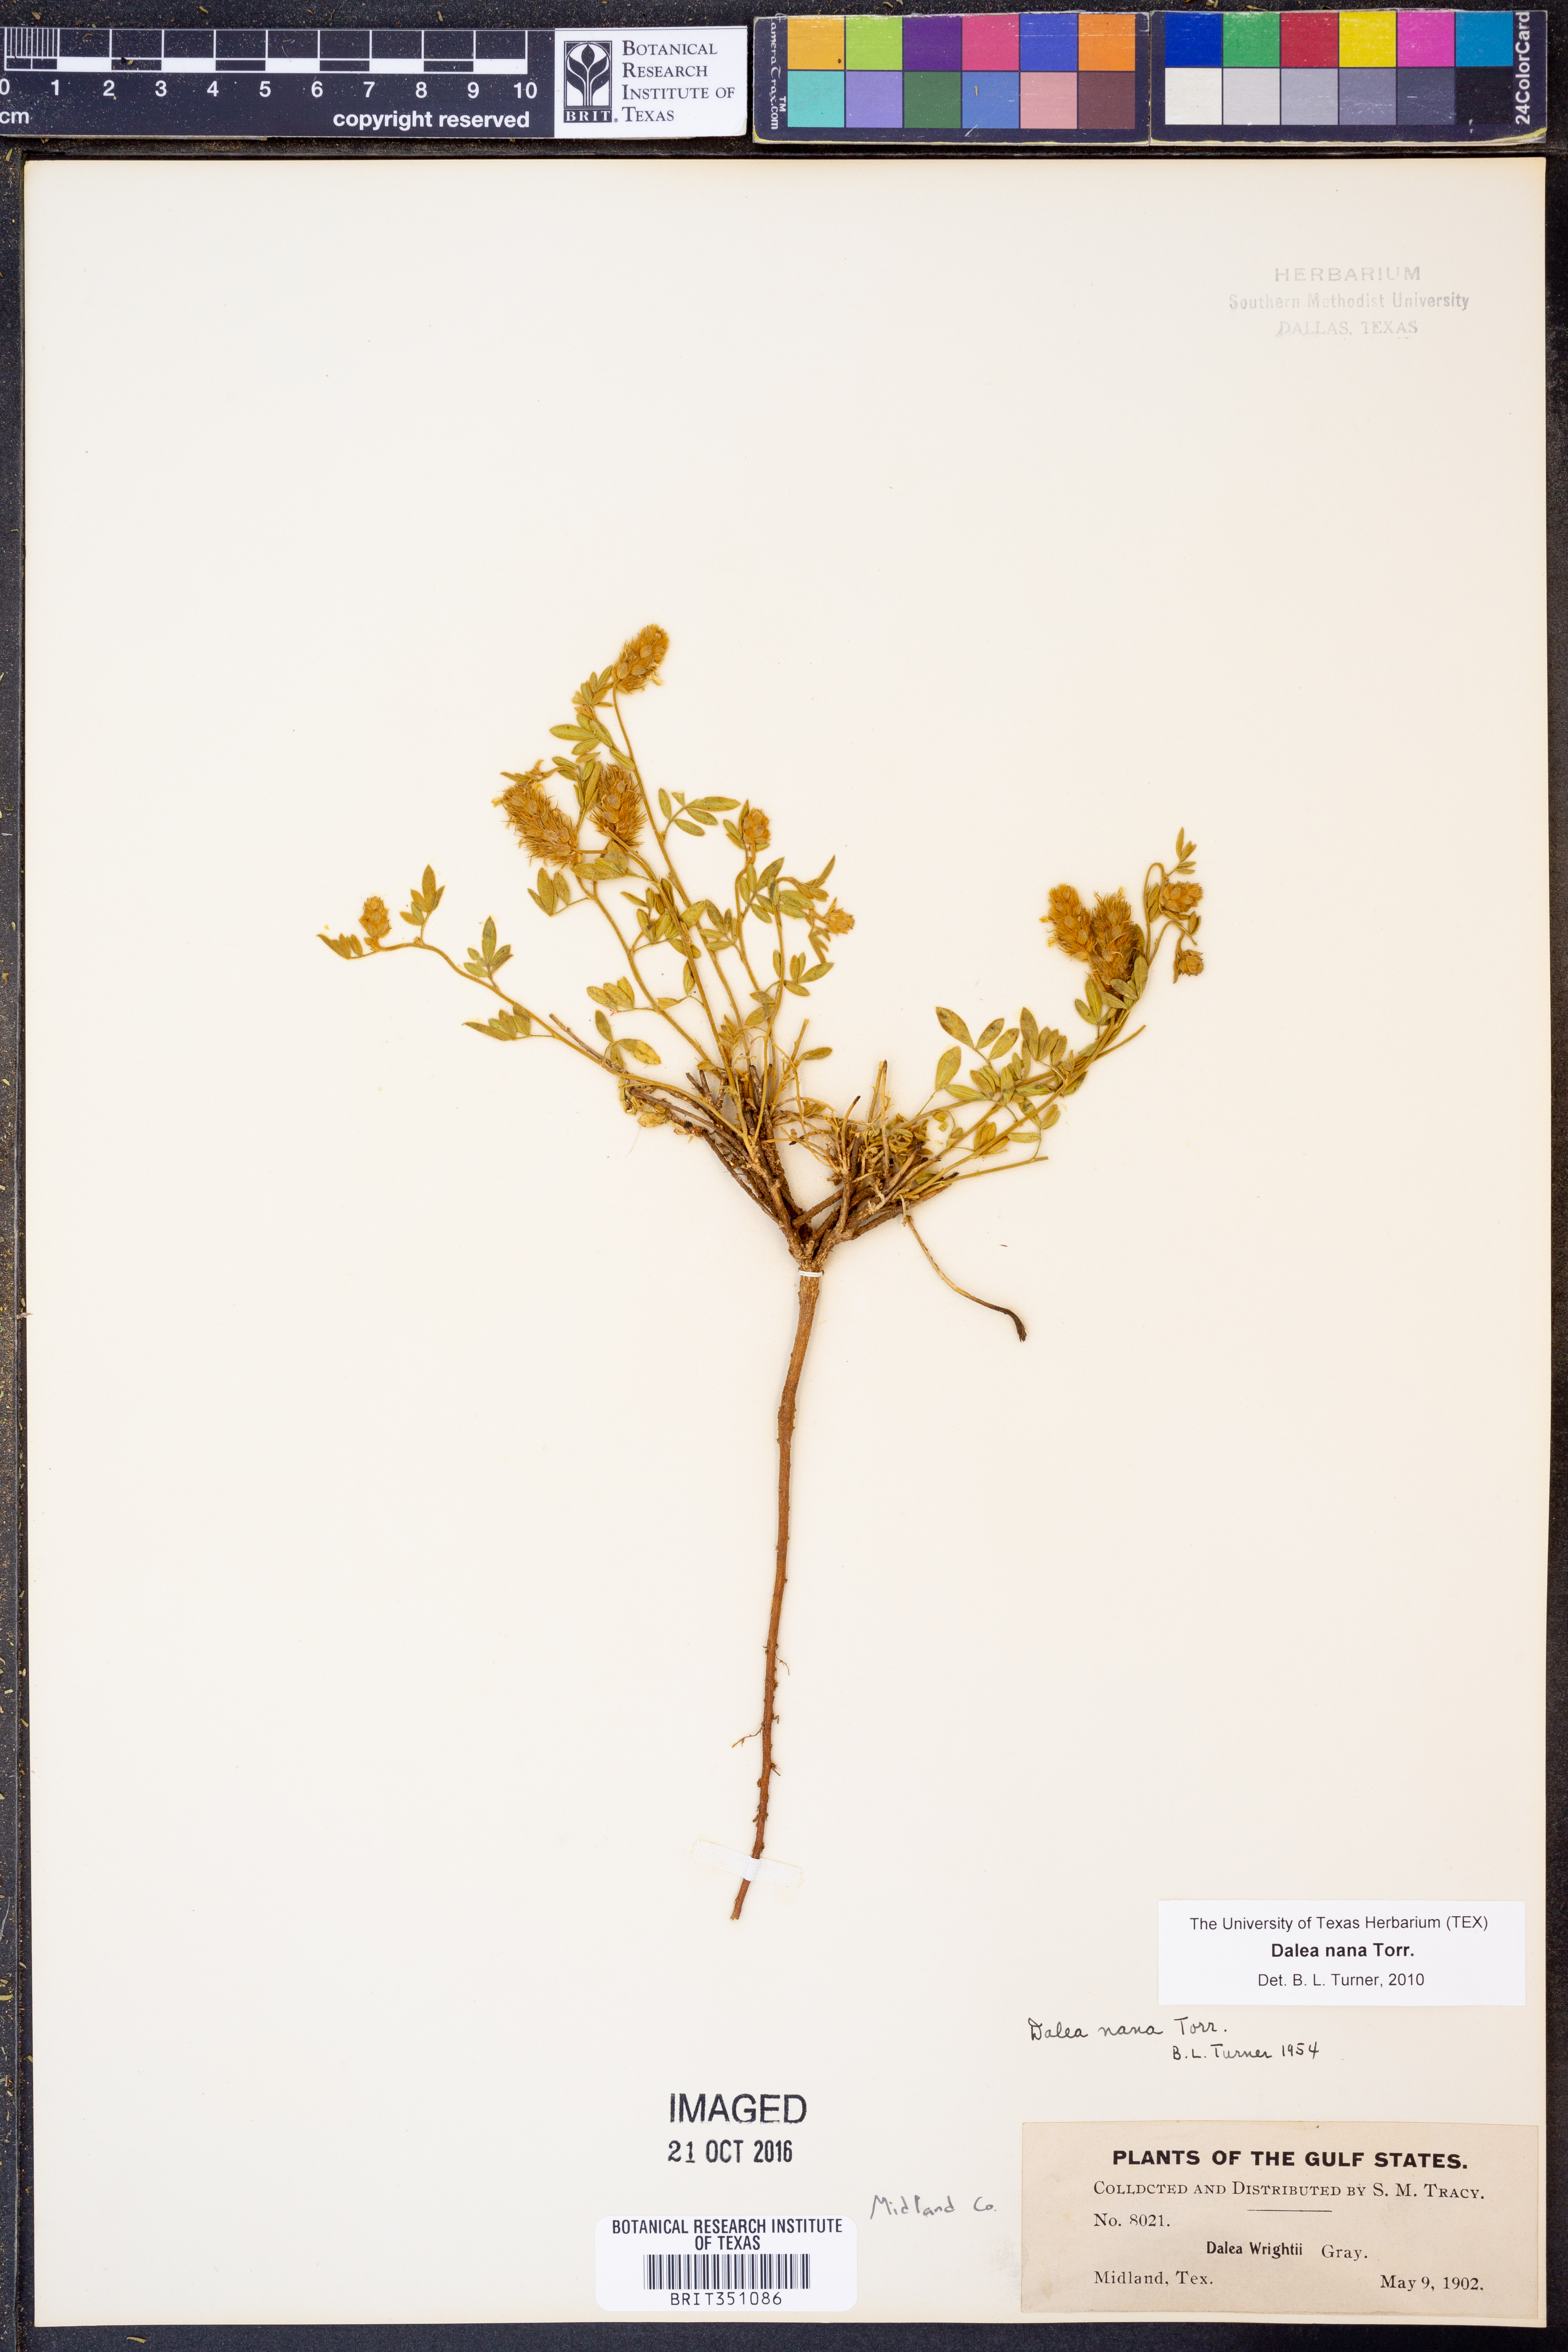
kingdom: Plantae
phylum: Tracheophyta
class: Magnoliopsida
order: Fabales
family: Fabaceae
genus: Dalea
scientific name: Dalea nana
